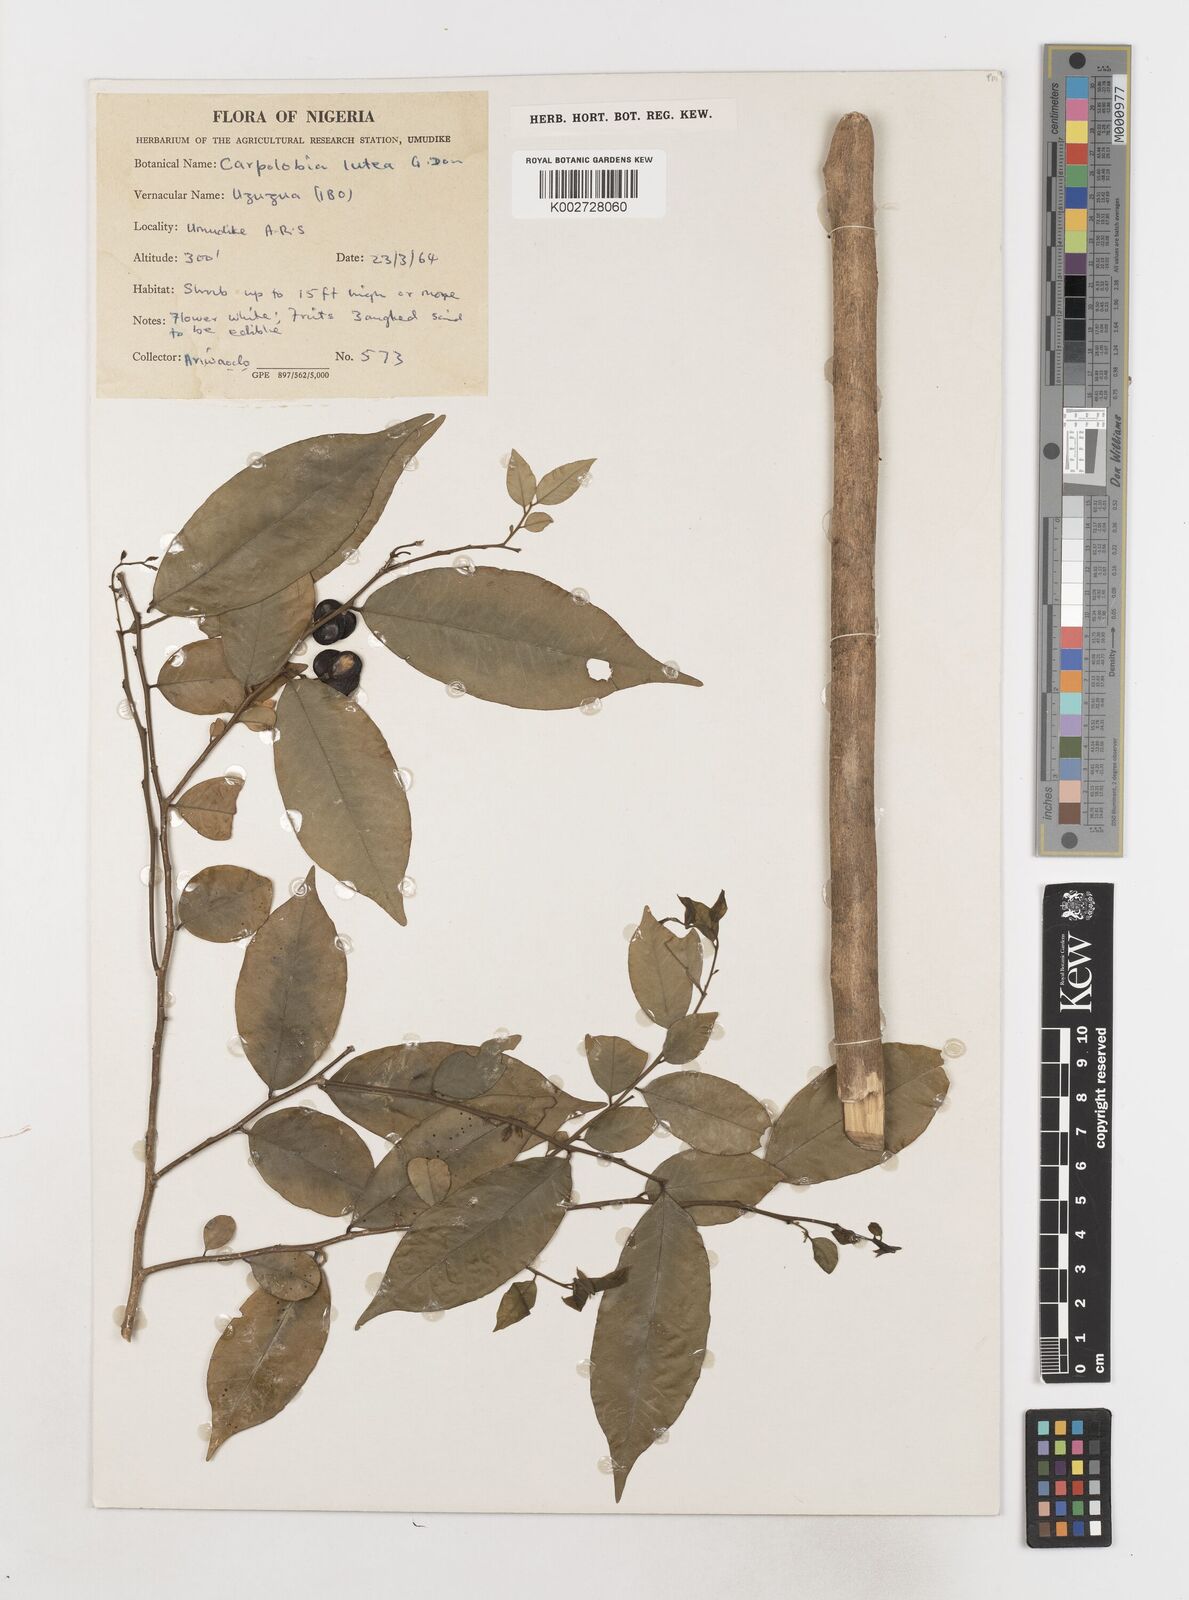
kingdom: Plantae
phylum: Tracheophyta
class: Magnoliopsida
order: Fabales
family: Polygalaceae
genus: Carpolobia
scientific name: Carpolobia lutea
